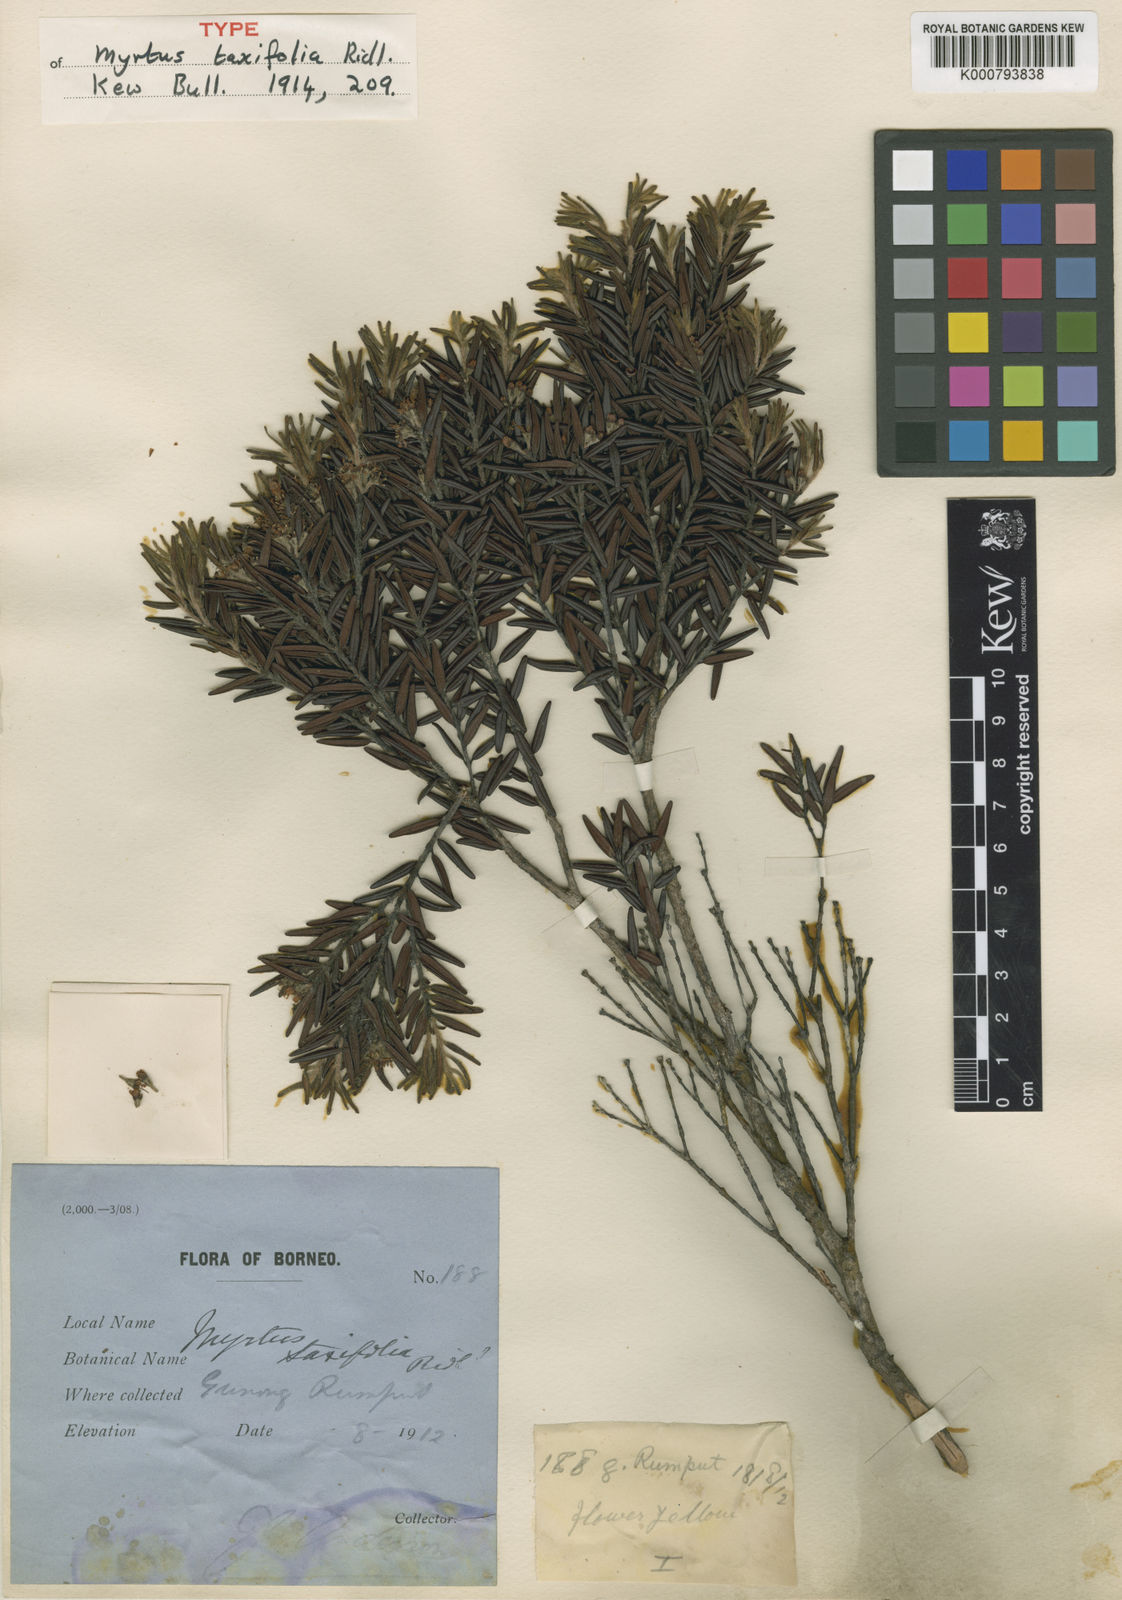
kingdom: Plantae
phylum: Tracheophyta
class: Magnoliopsida
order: Myrtales
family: Myrtaceae
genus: Xanthomyrtus
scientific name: Xanthomyrtus flavida
